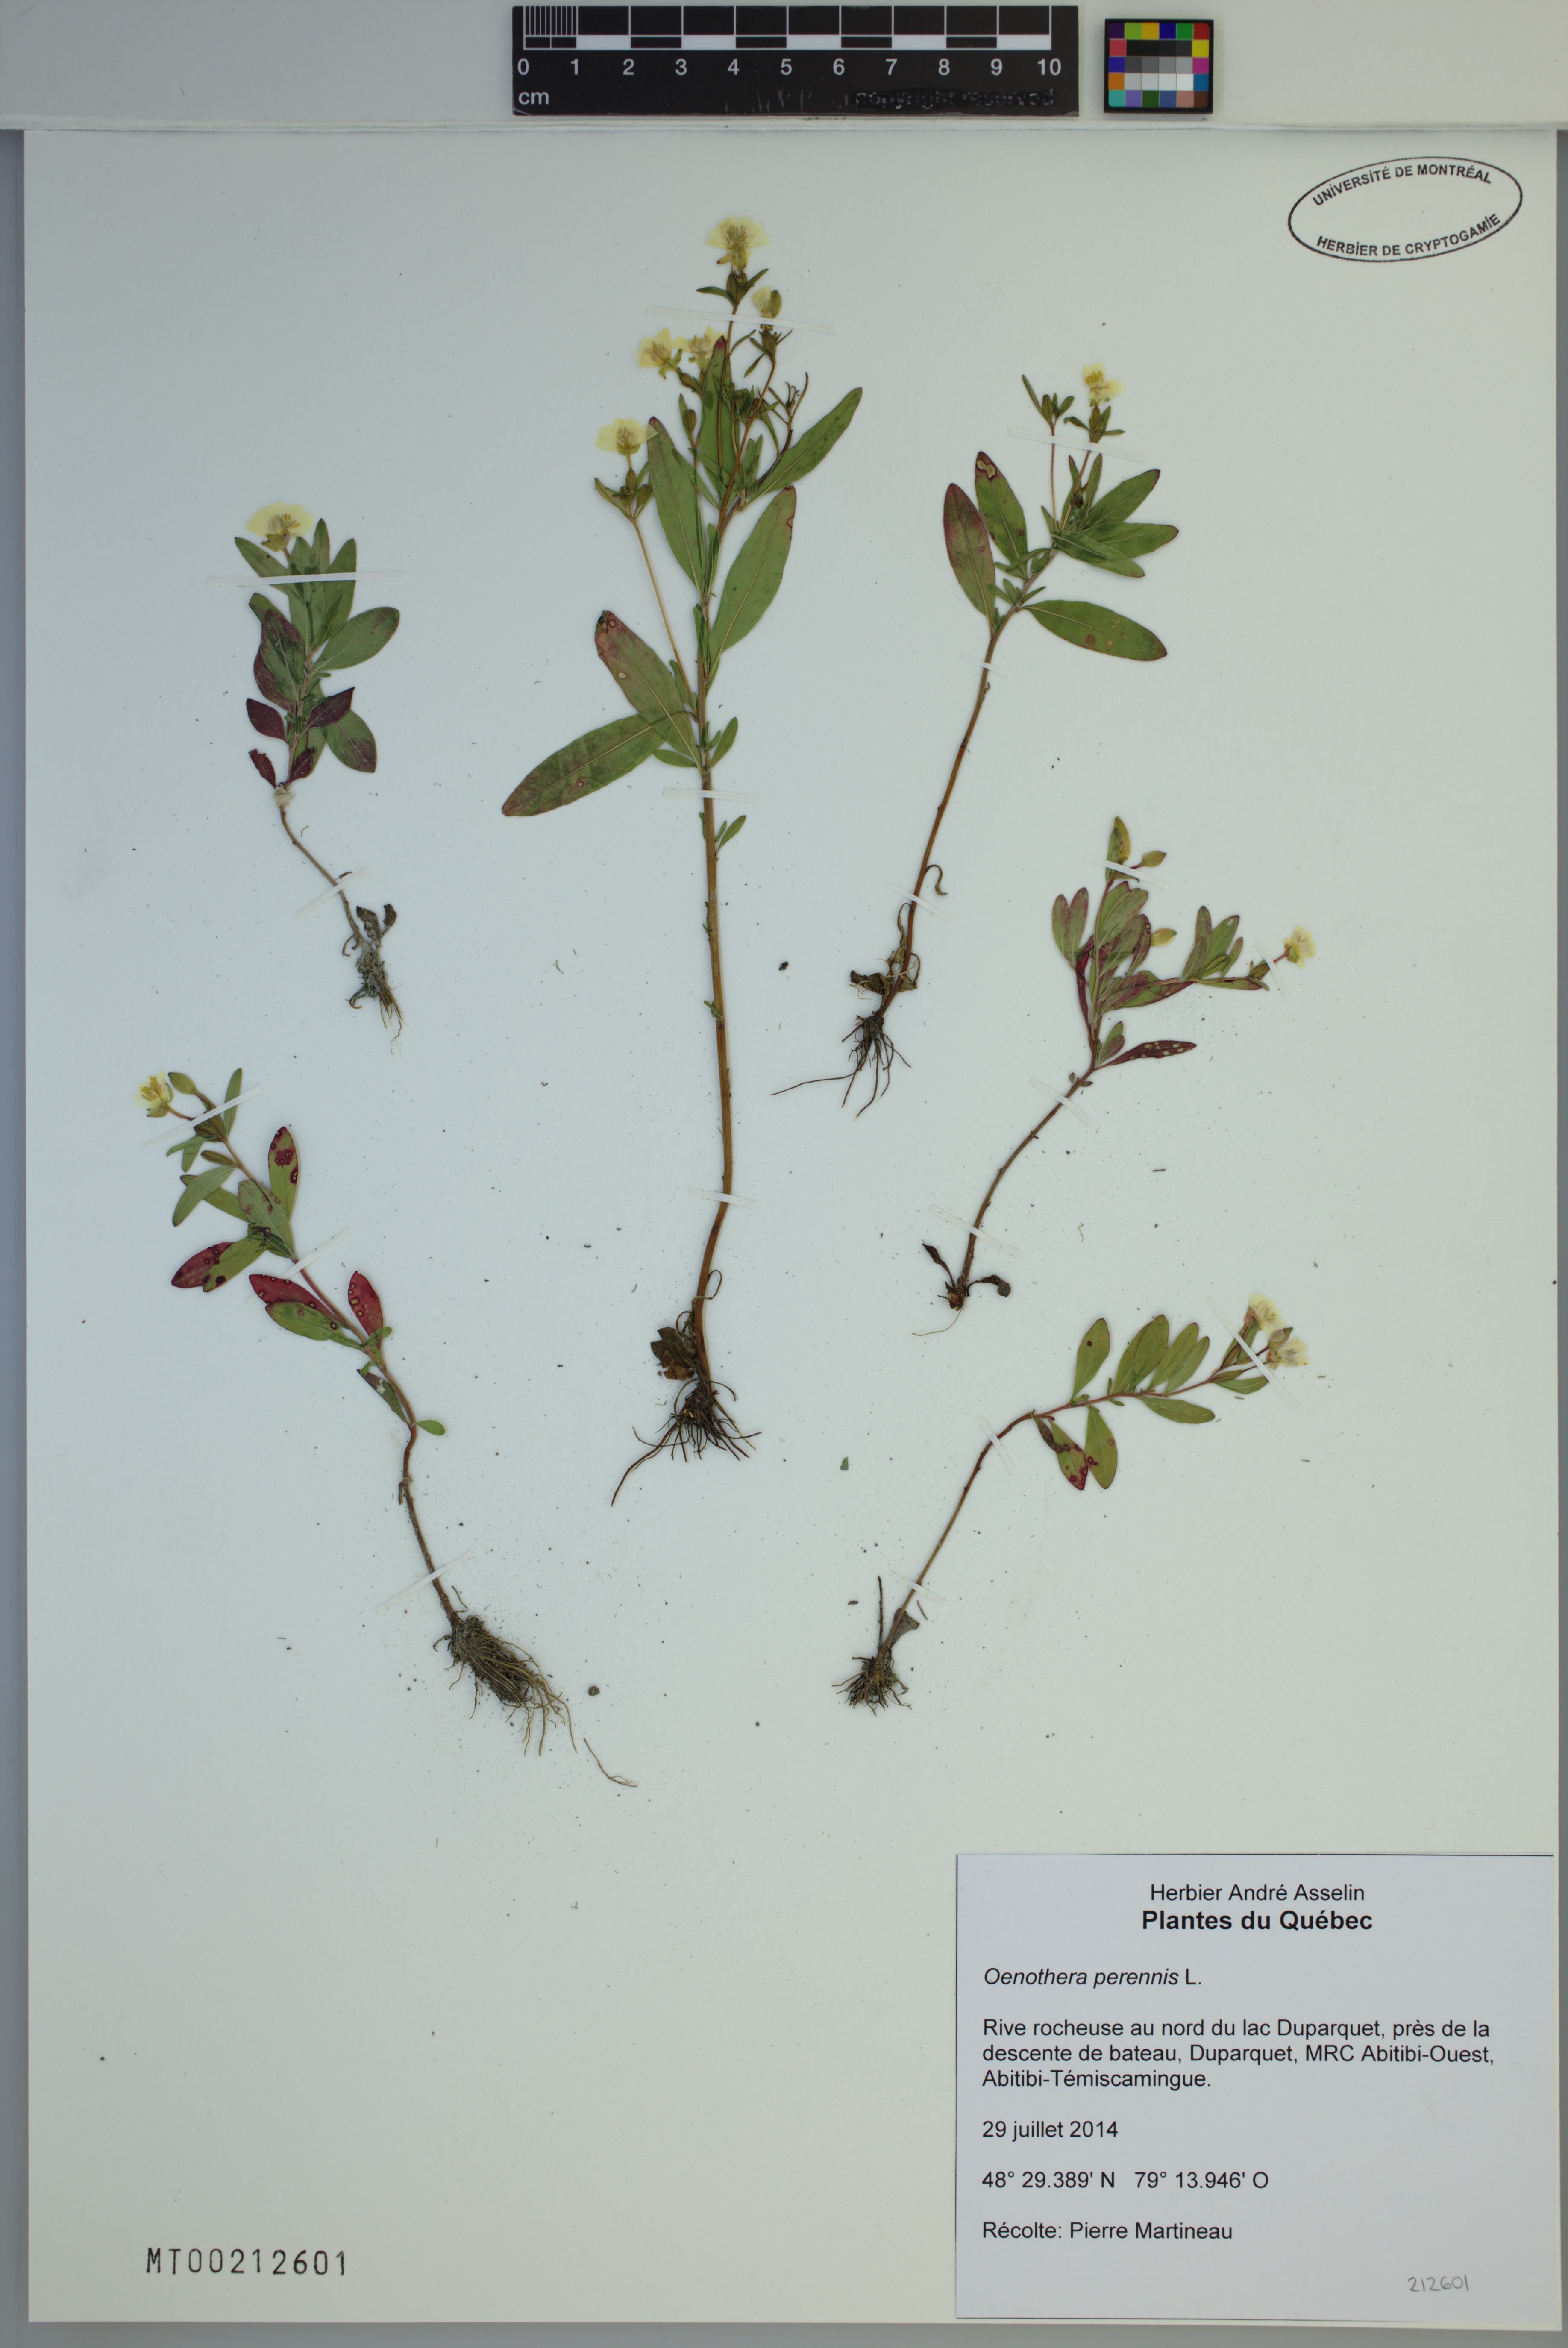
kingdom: Plantae
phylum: Tracheophyta
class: Magnoliopsida
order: Myrtales
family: Onagraceae
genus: Oenothera
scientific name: Oenothera perennis
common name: Small sundrops
